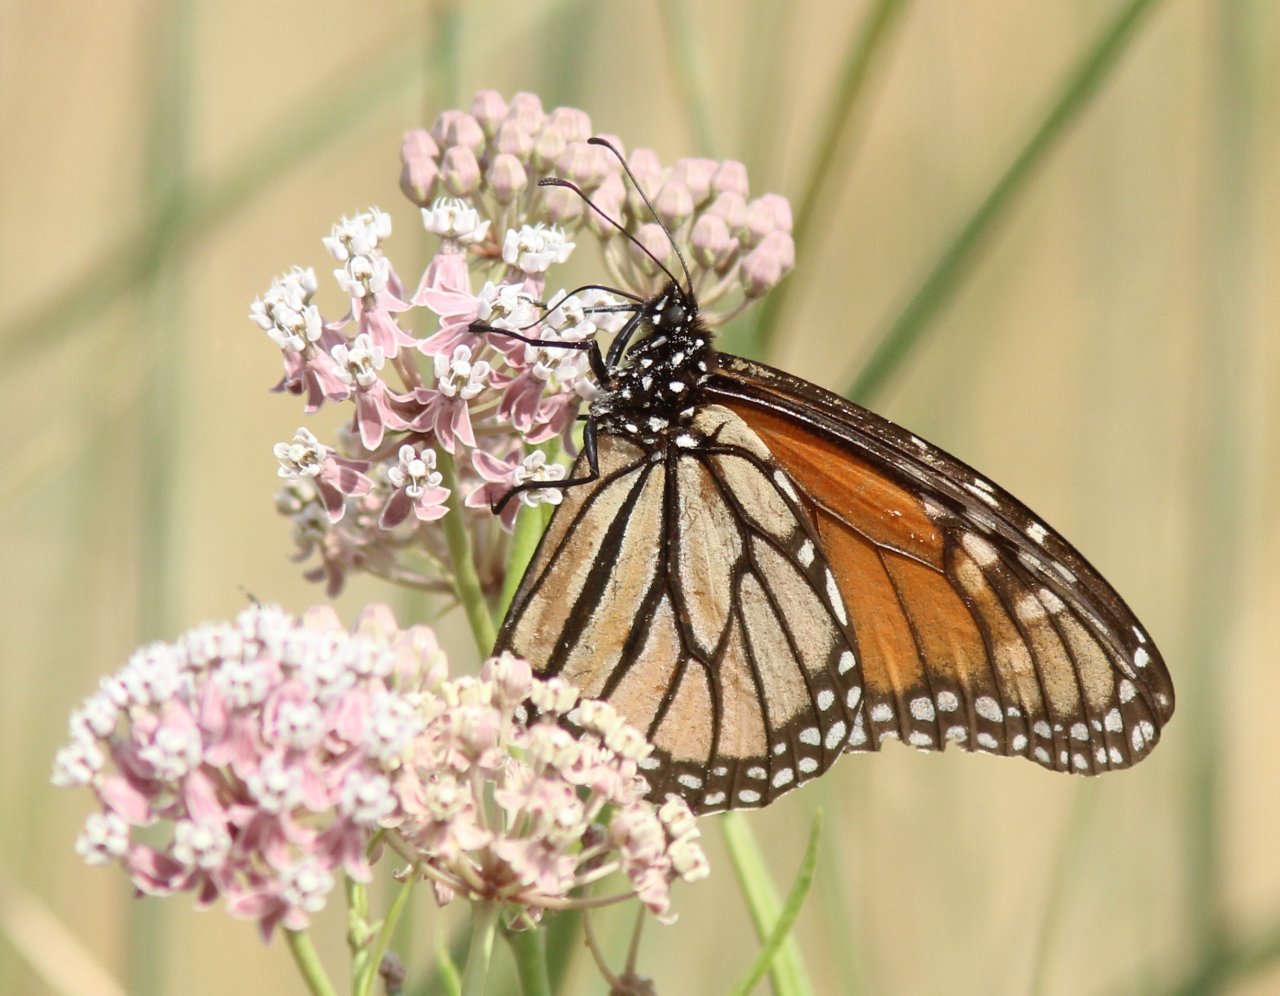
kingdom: Animalia
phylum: Arthropoda
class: Insecta
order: Lepidoptera
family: Nymphalidae
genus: Danaus
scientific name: Danaus plexippus
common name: Monarch
